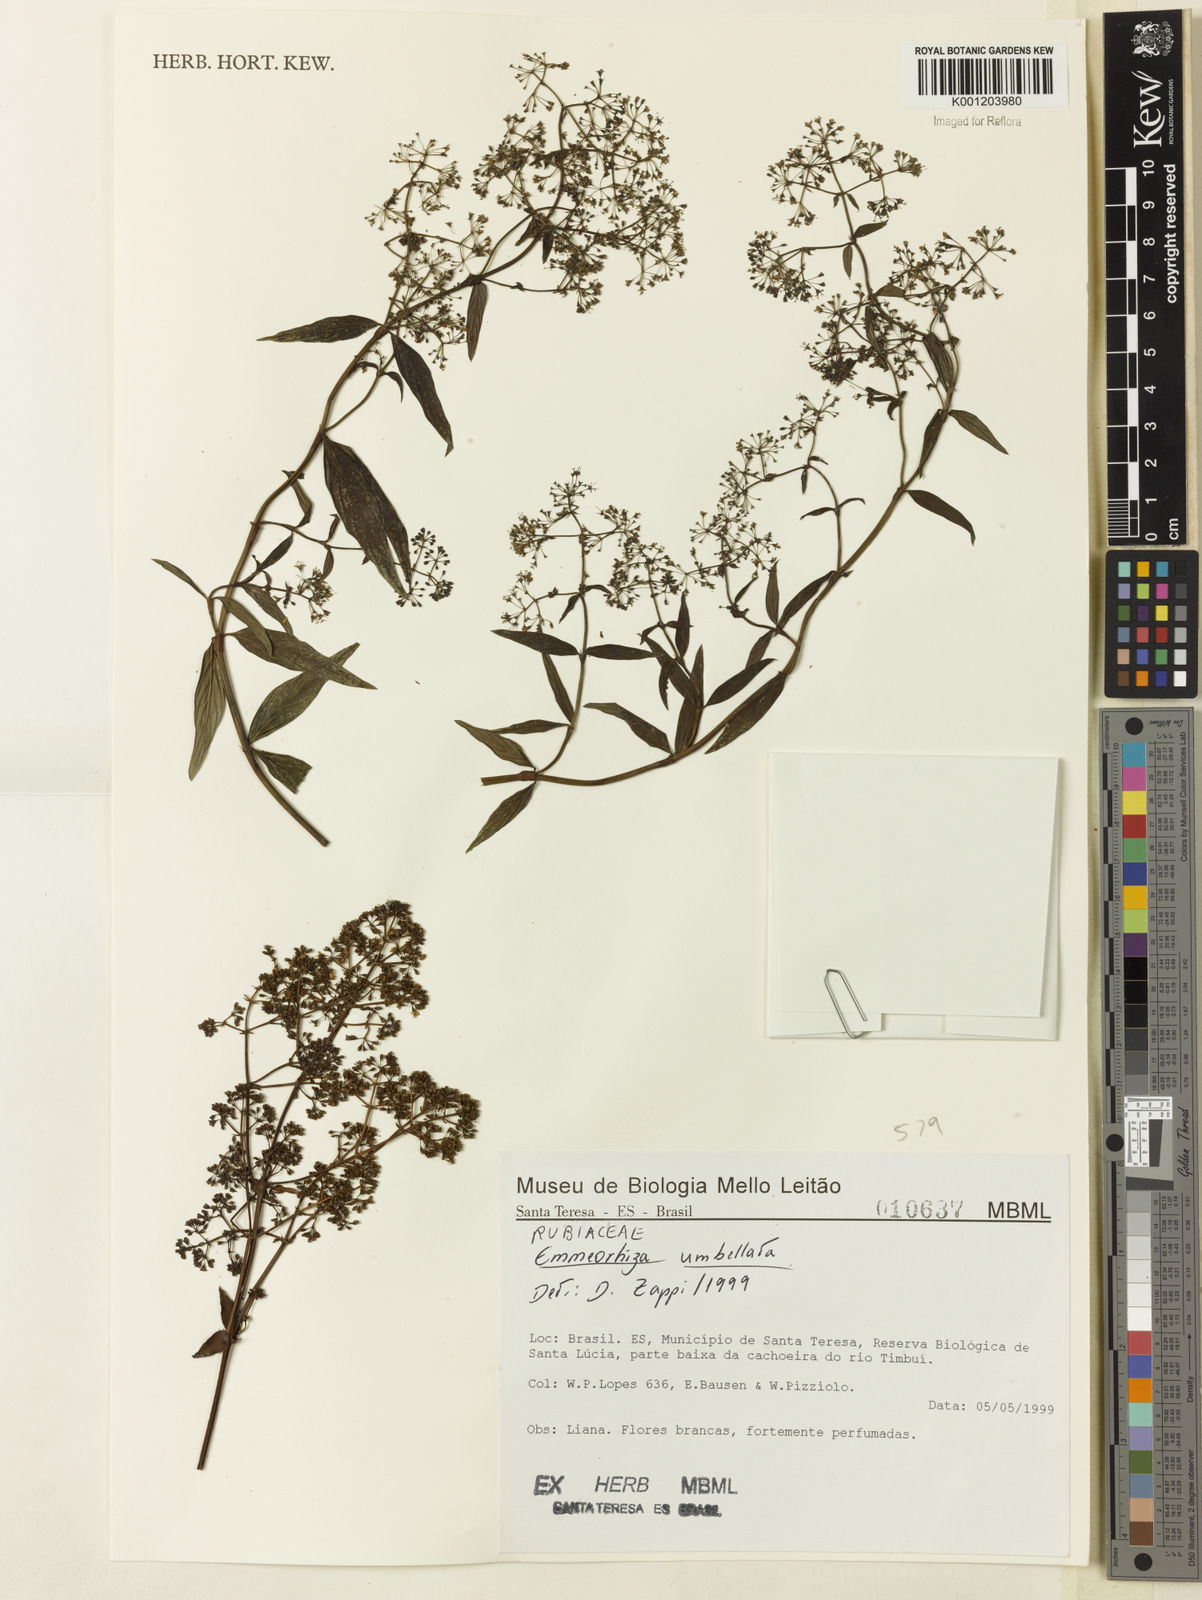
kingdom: Plantae
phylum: Tracheophyta
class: Magnoliopsida
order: Gentianales
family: Rubiaceae
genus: Emmeorhiza
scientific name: Emmeorhiza umbellata
